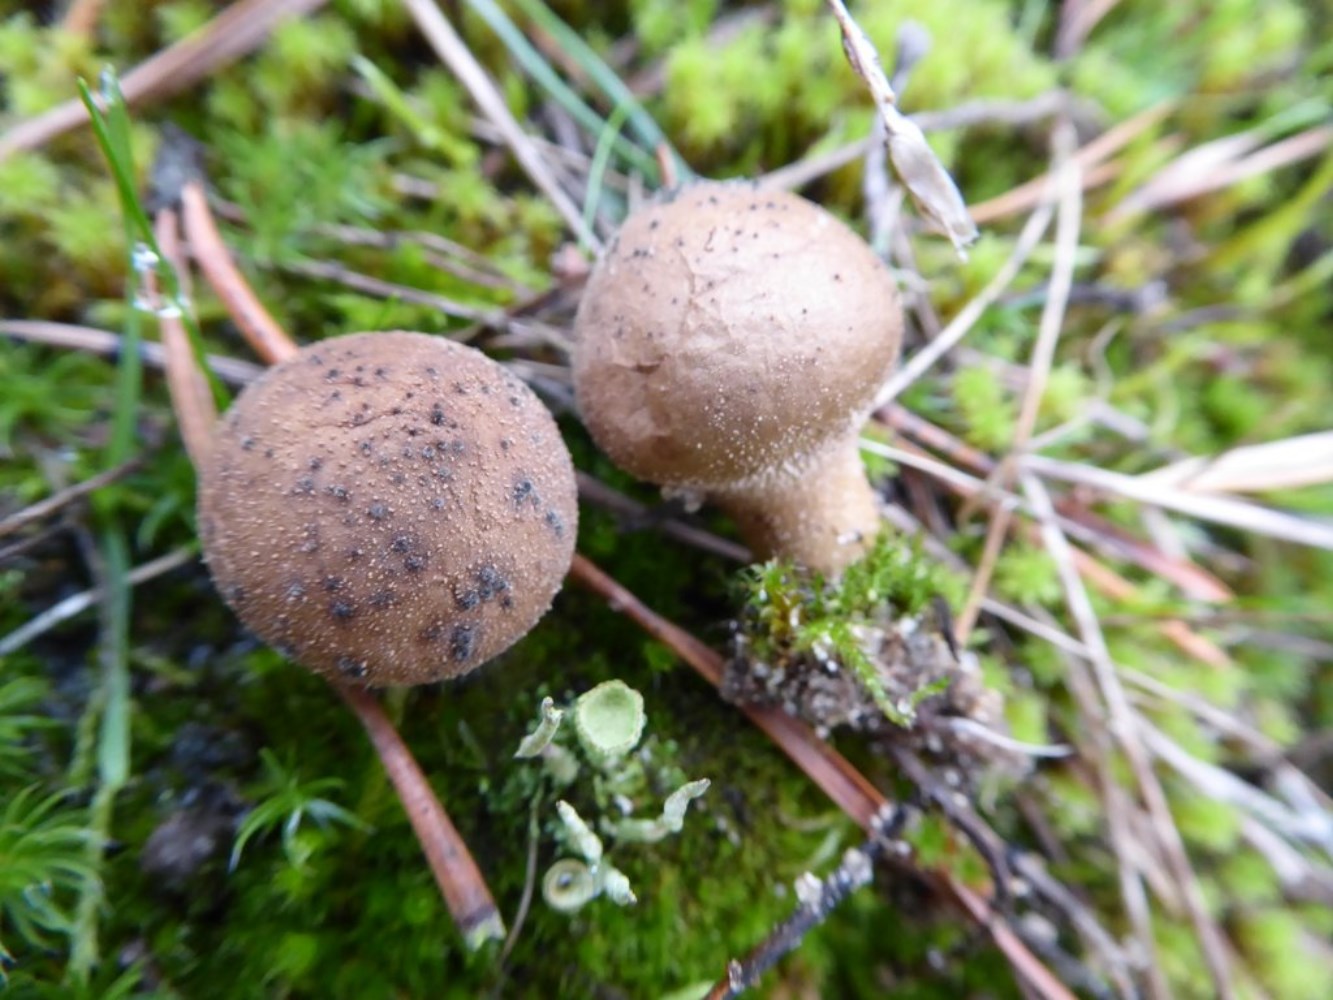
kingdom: Fungi
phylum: Basidiomycota
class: Agaricomycetes
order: Agaricales
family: Lycoperdaceae
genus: Lycoperdon
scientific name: Lycoperdon lividum
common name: mark-støvbold
